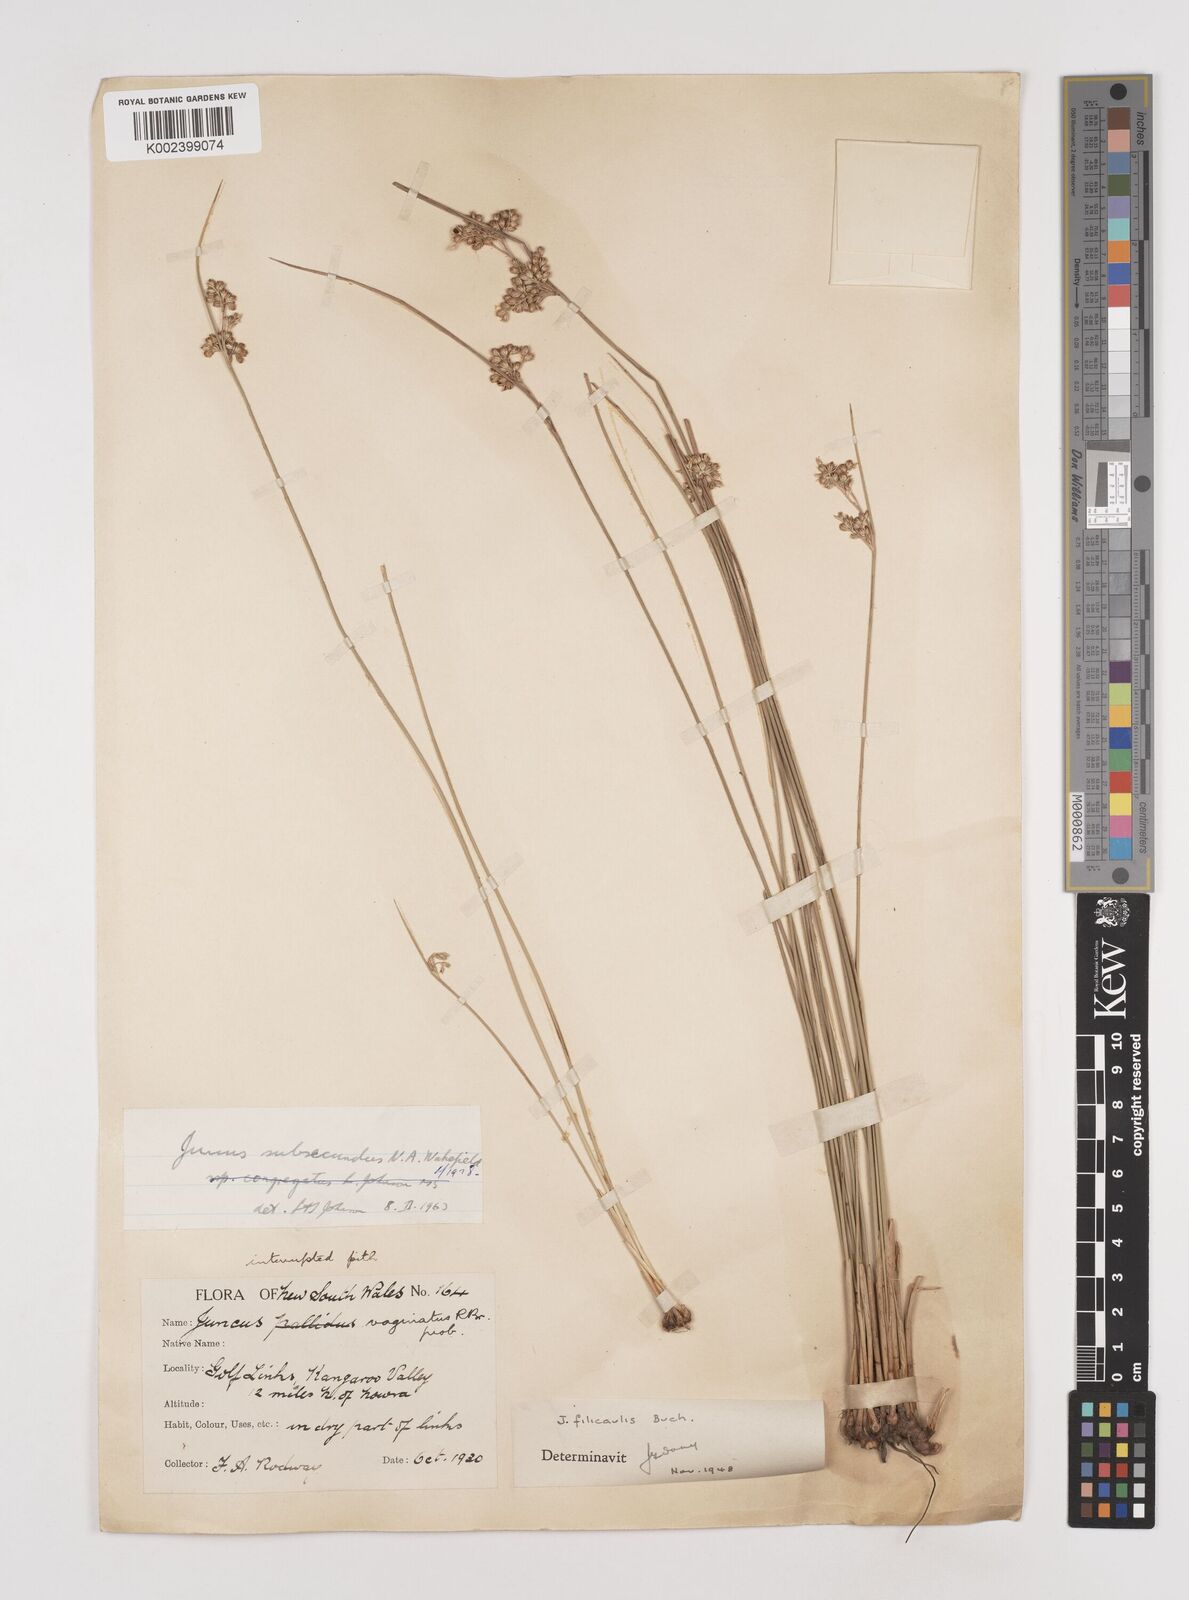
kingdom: Plantae
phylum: Tracheophyta
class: Liliopsida
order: Poales
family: Juncaceae
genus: Juncus
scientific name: Juncus subsecundus
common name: Fingered rush
